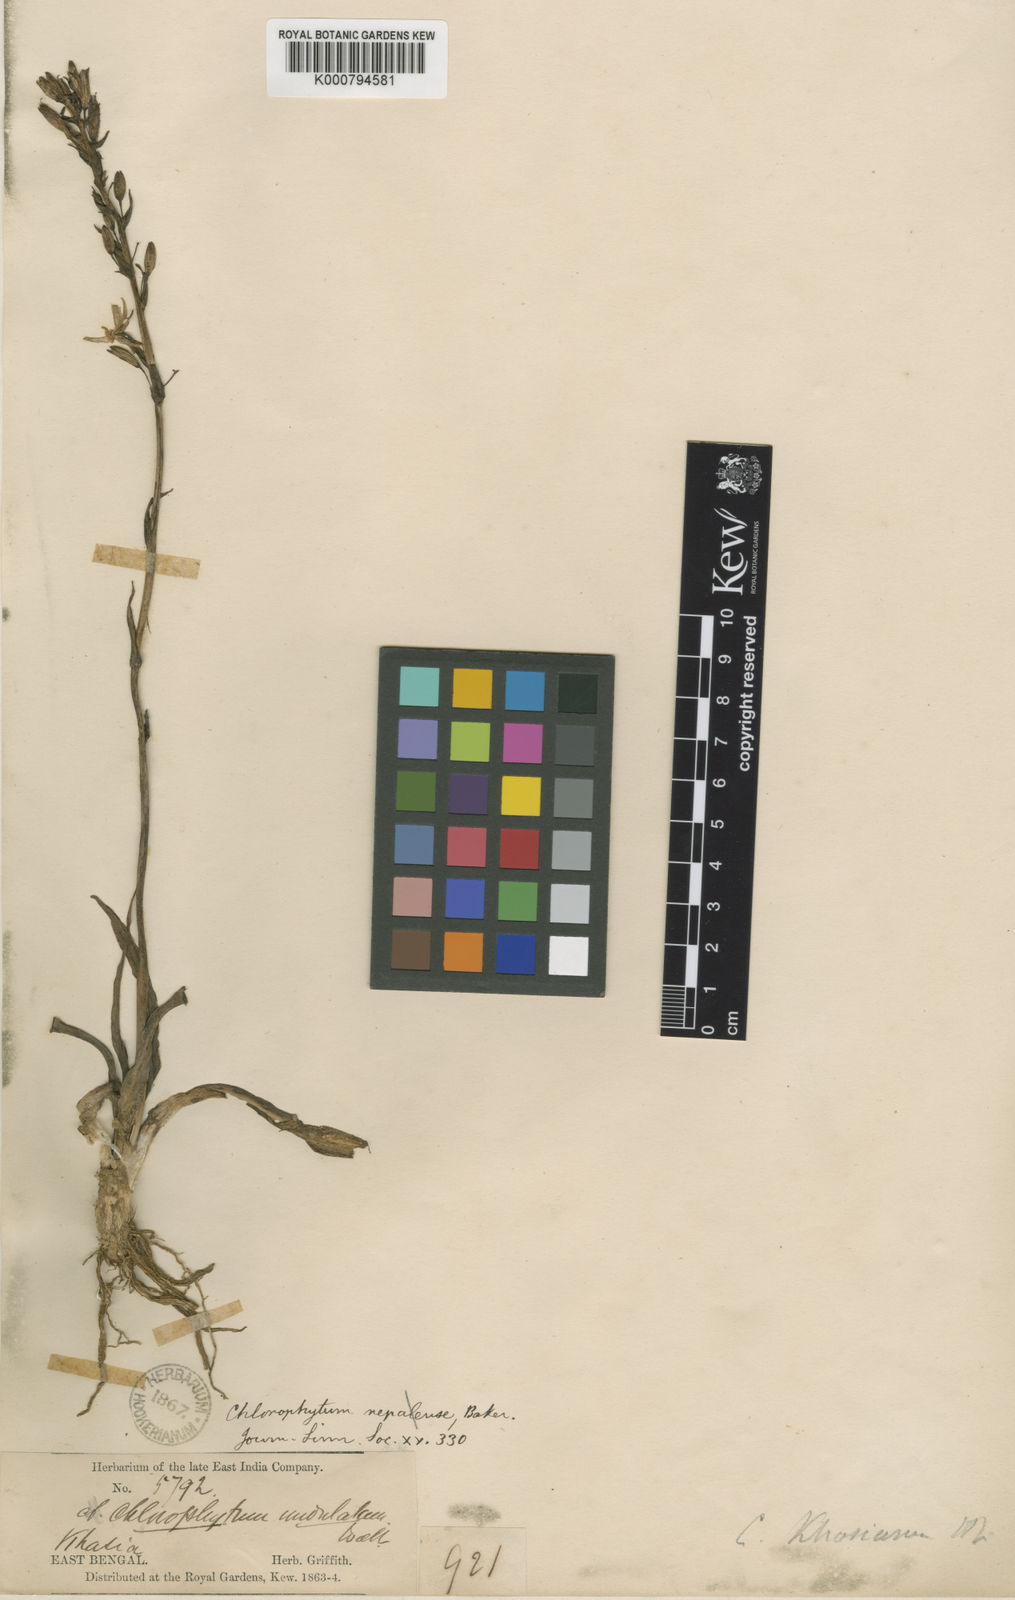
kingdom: Plantae
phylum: Tracheophyta
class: Liliopsida
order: Asparagales
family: Asparagaceae
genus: Chlorophytum
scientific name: Chlorophytum nepalense
